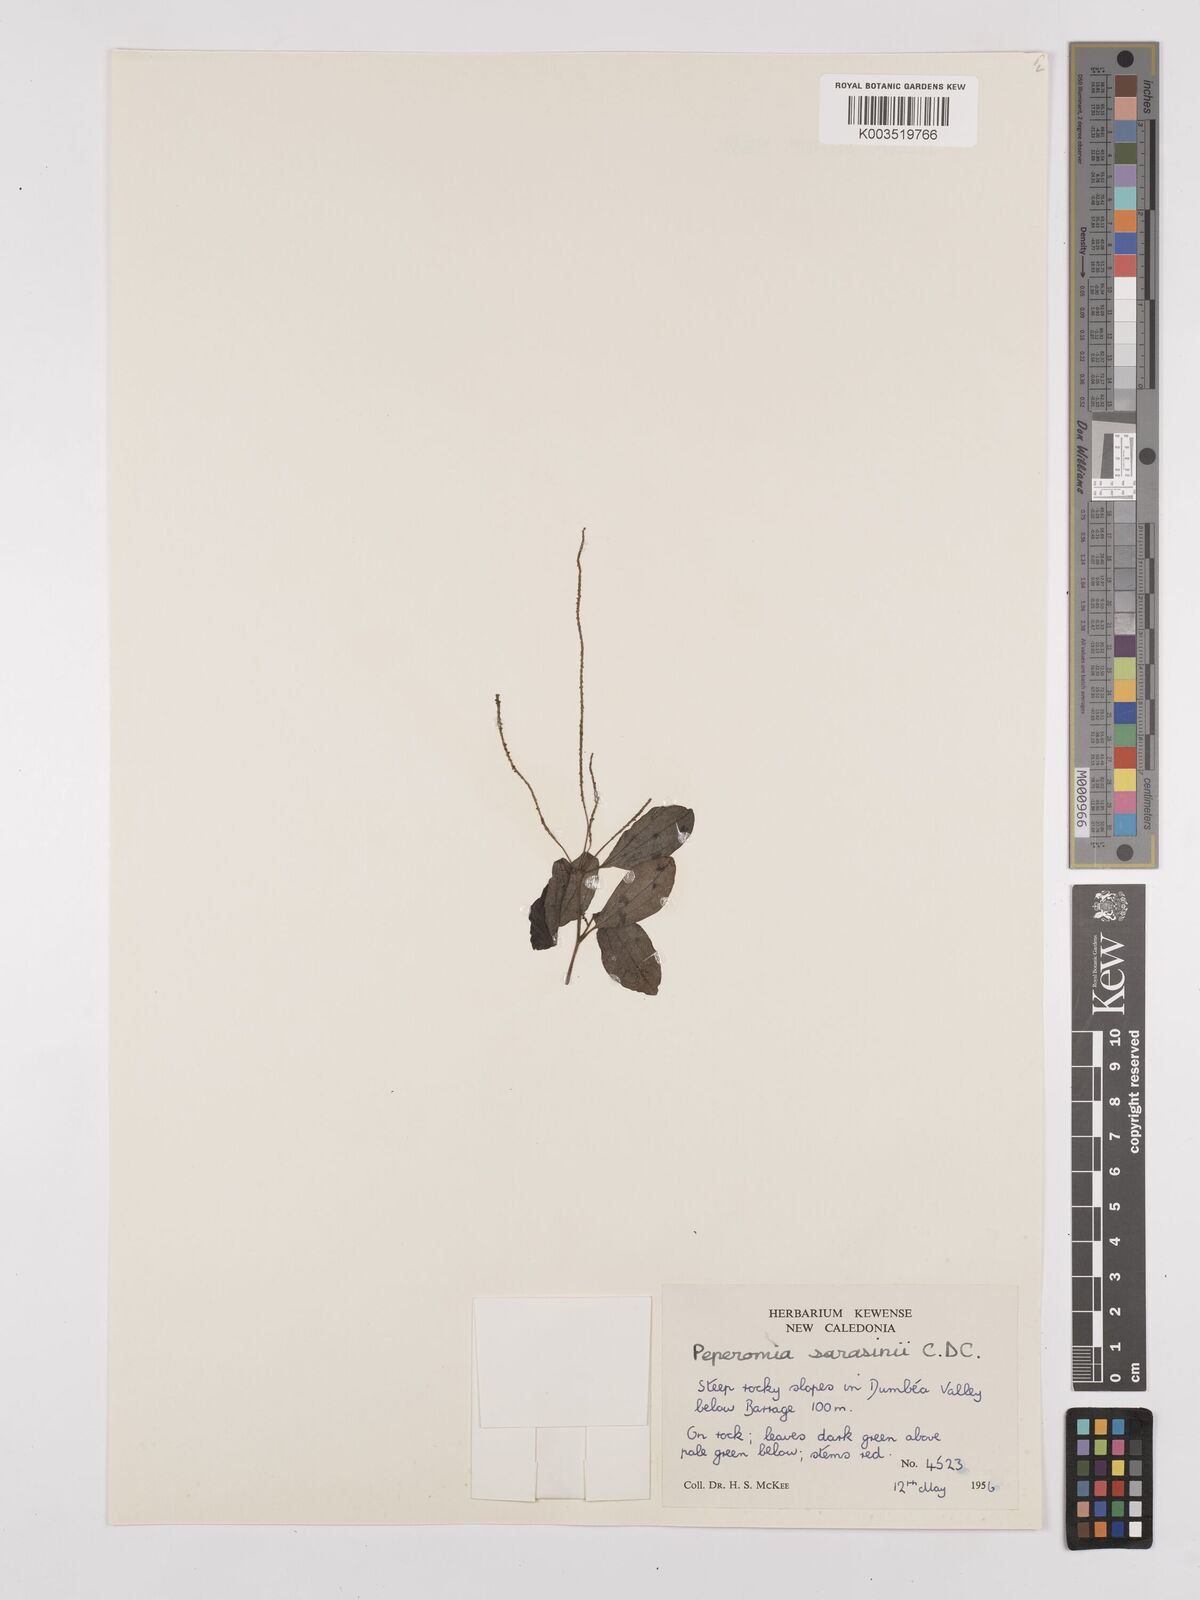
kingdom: Plantae
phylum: Tracheophyta
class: Magnoliopsida
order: Piperales
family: Piperaceae
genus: Peperomia
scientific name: Peperomia sarasinii
